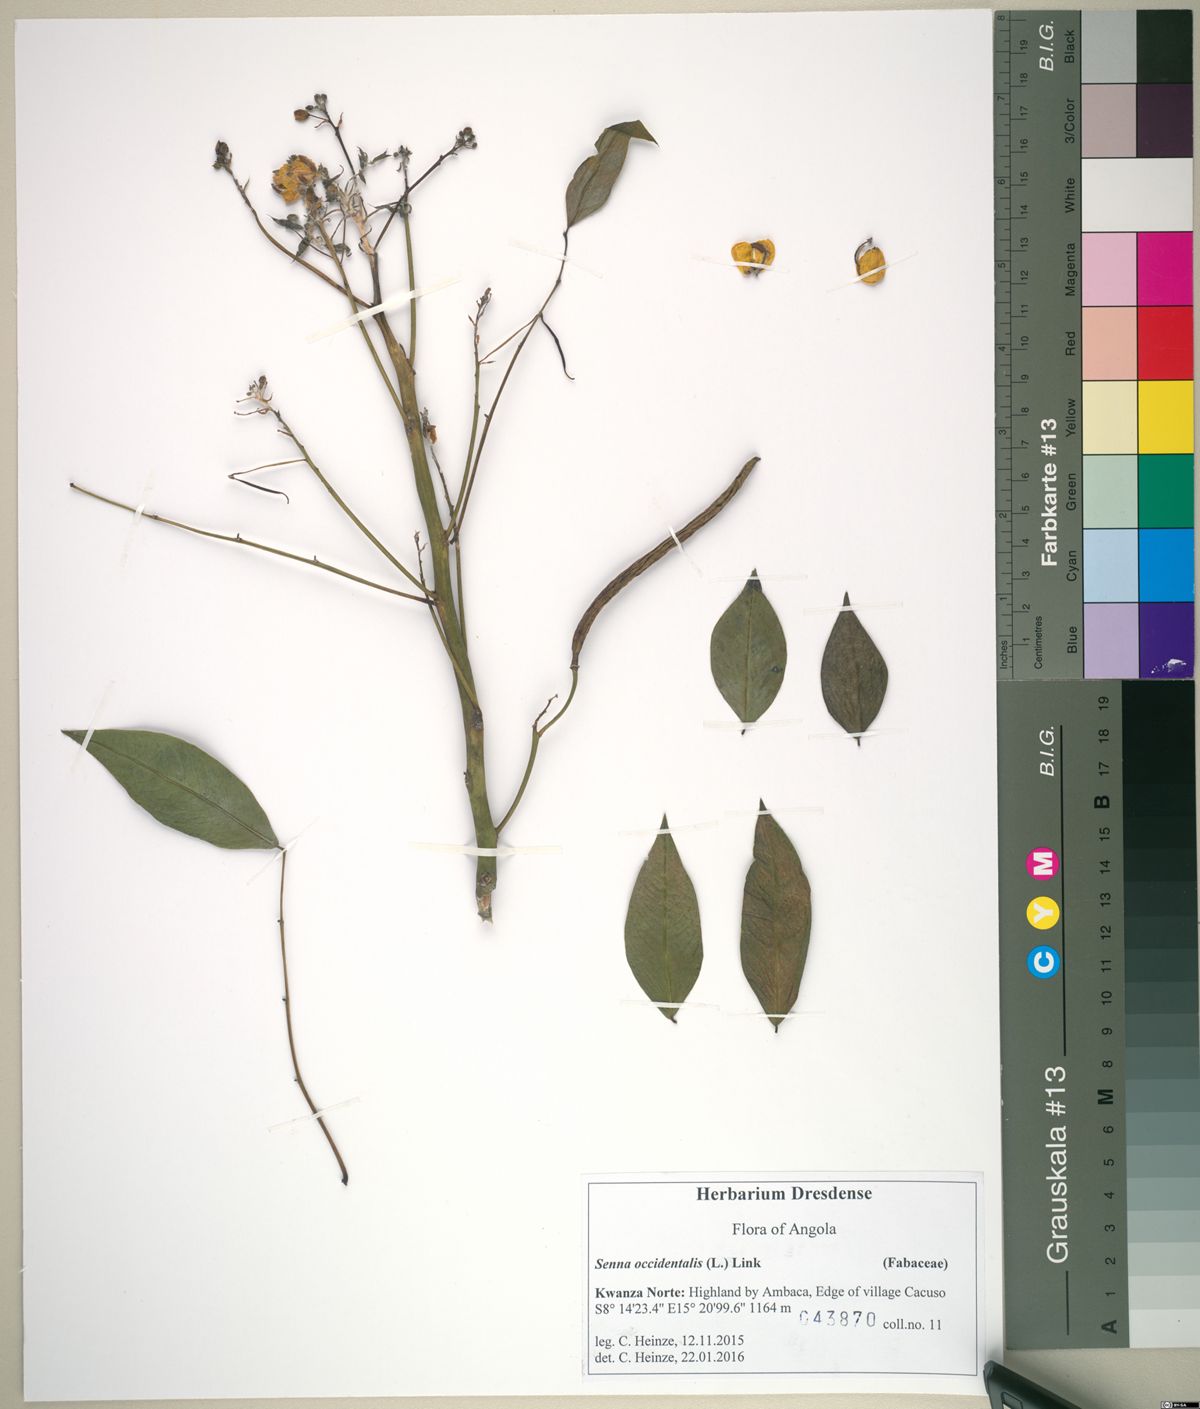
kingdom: Plantae
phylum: Tracheophyta
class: Magnoliopsida
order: Fabales
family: Fabaceae
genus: Senna
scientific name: Senna occidentalis
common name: Septicweed
